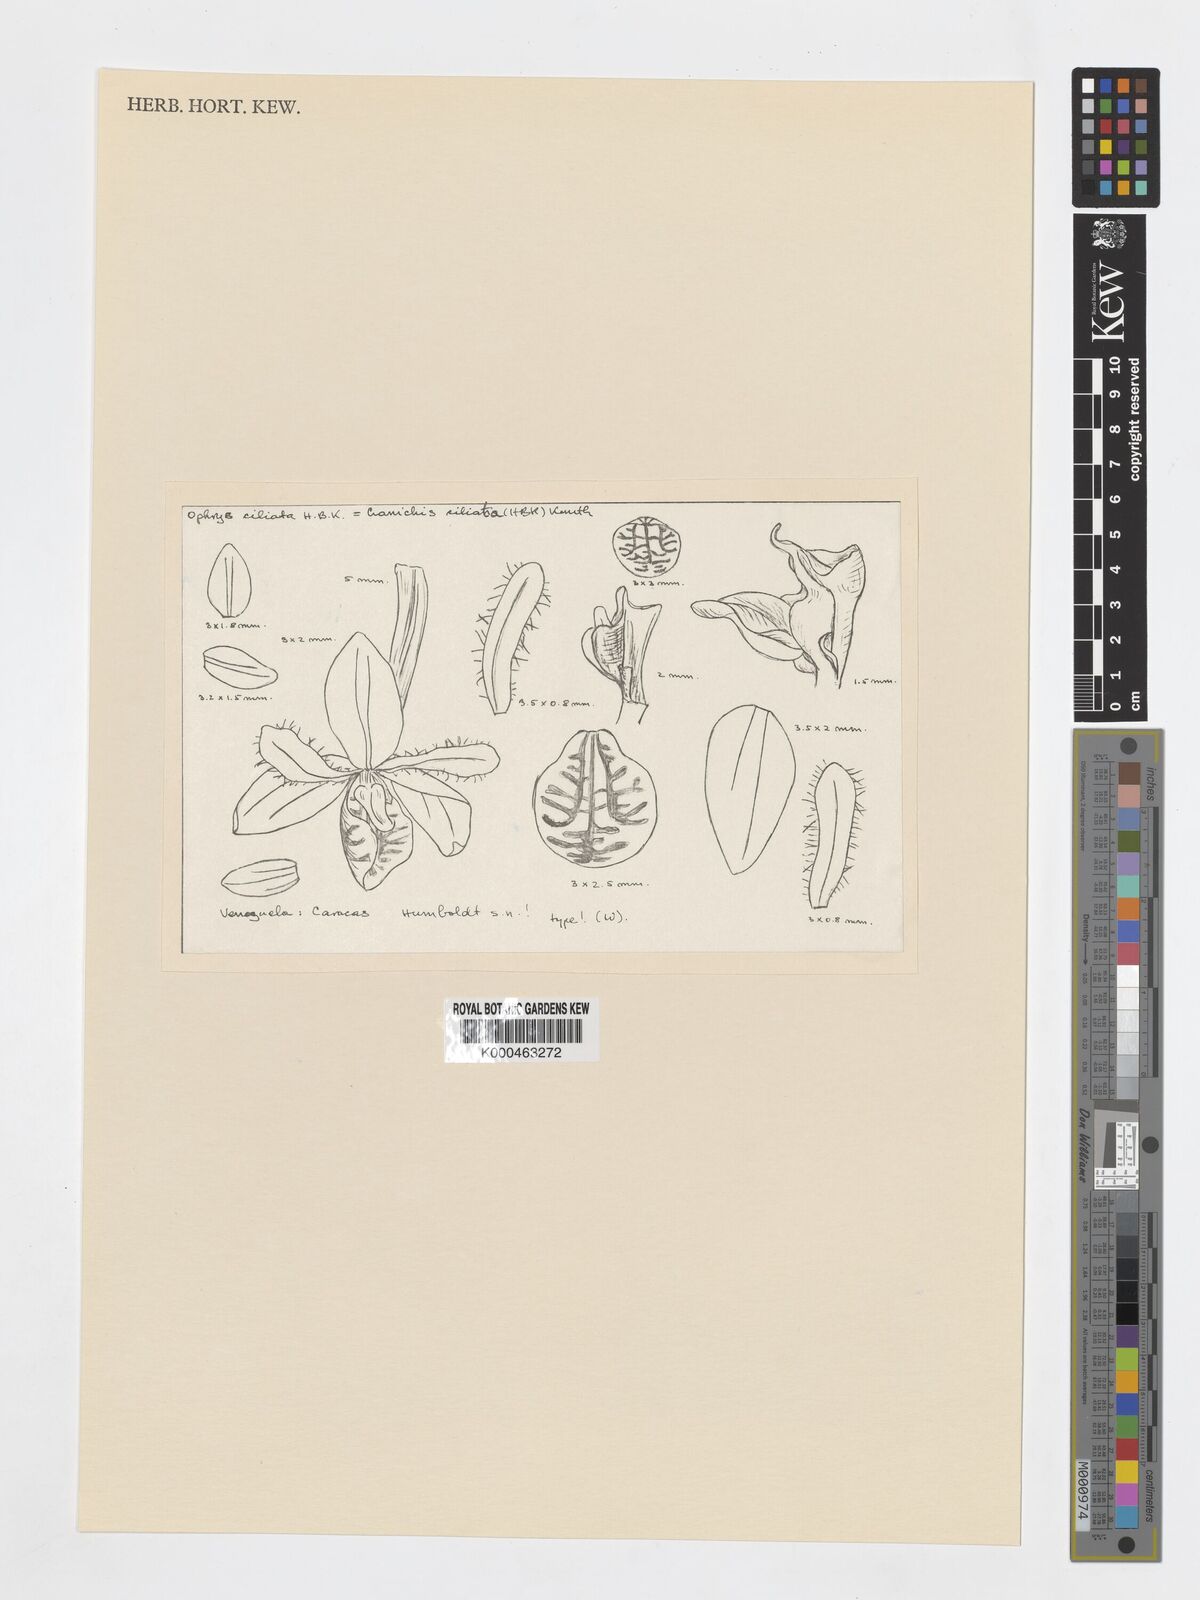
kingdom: Plantae
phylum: Tracheophyta
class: Liliopsida
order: Asparagales
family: Orchidaceae
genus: Cranichis
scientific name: Cranichis
